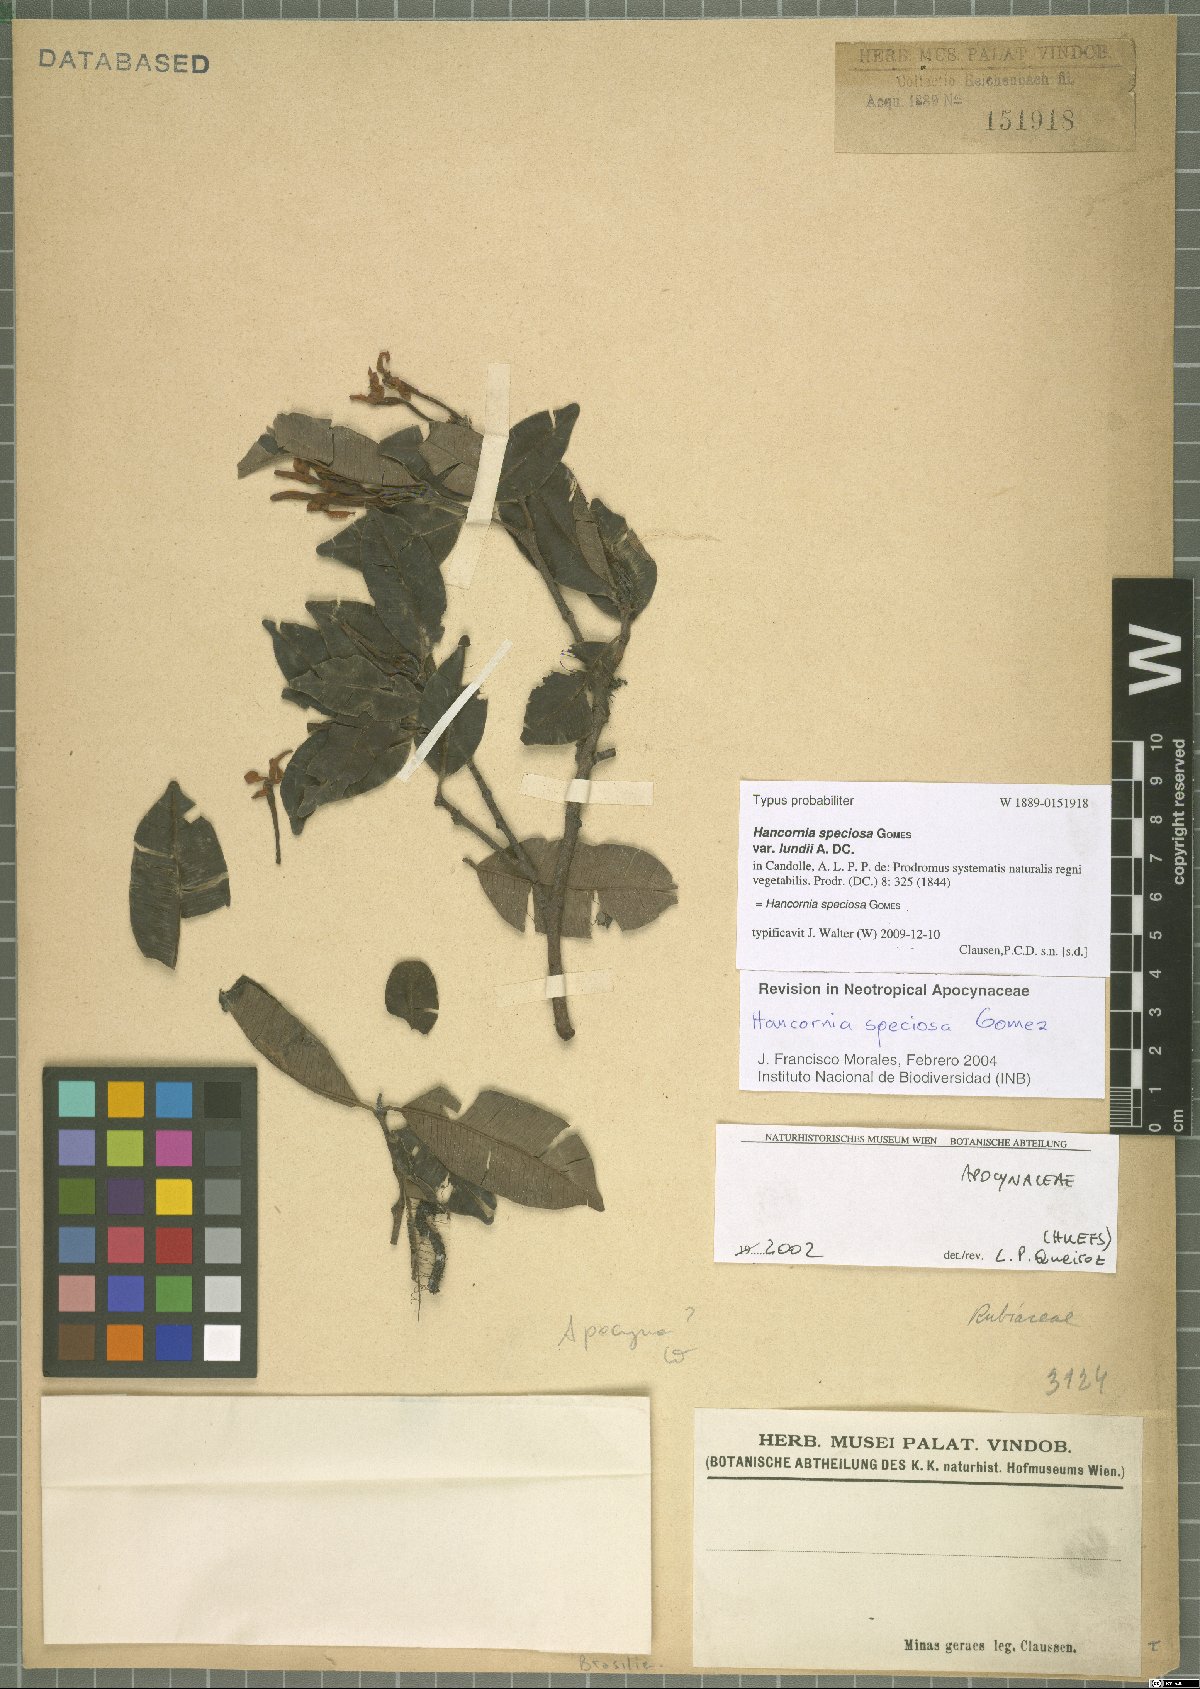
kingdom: Plantae
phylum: Tracheophyta
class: Magnoliopsida
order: Gentianales
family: Apocynaceae
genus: Hancornia
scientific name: Hancornia speciosa
